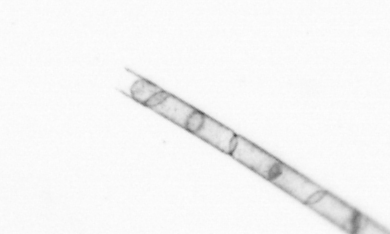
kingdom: Chromista
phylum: Ochrophyta
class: Bacillariophyceae
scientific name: Bacillariophyceae
